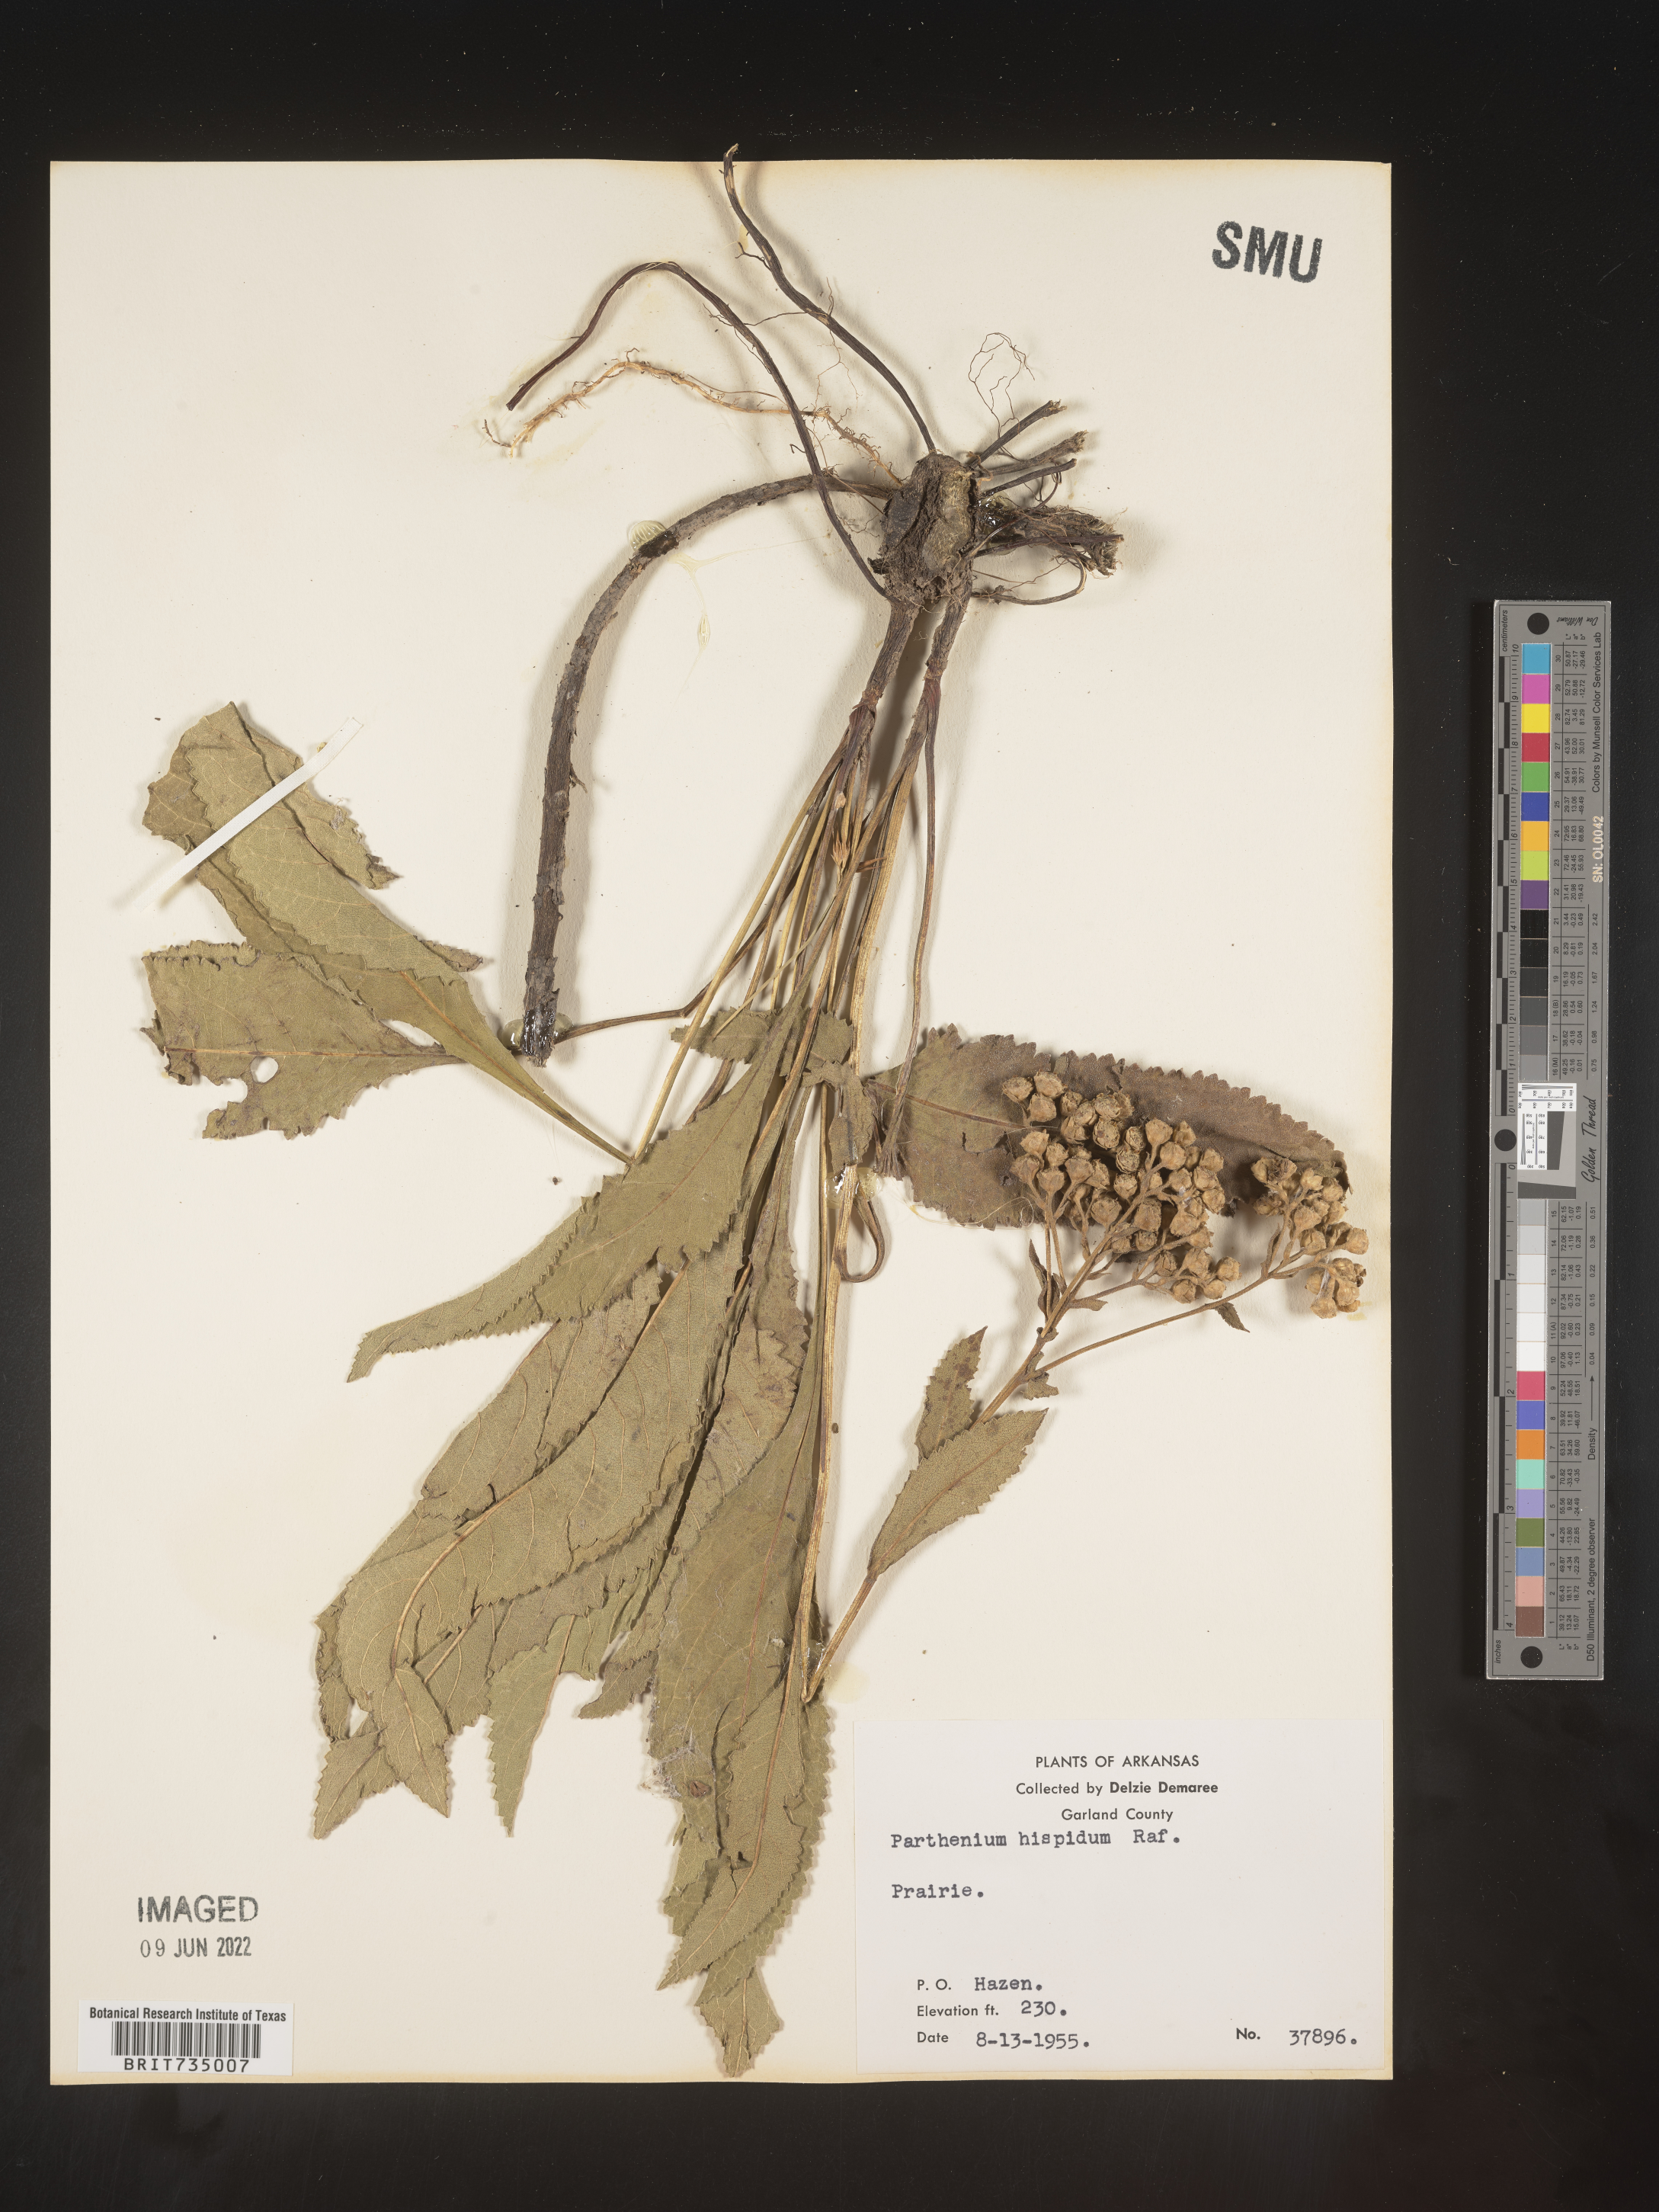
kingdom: Plantae
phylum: Tracheophyta
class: Magnoliopsida
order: Asterales
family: Asteraceae
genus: Parthenium
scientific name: Parthenium hispidum
